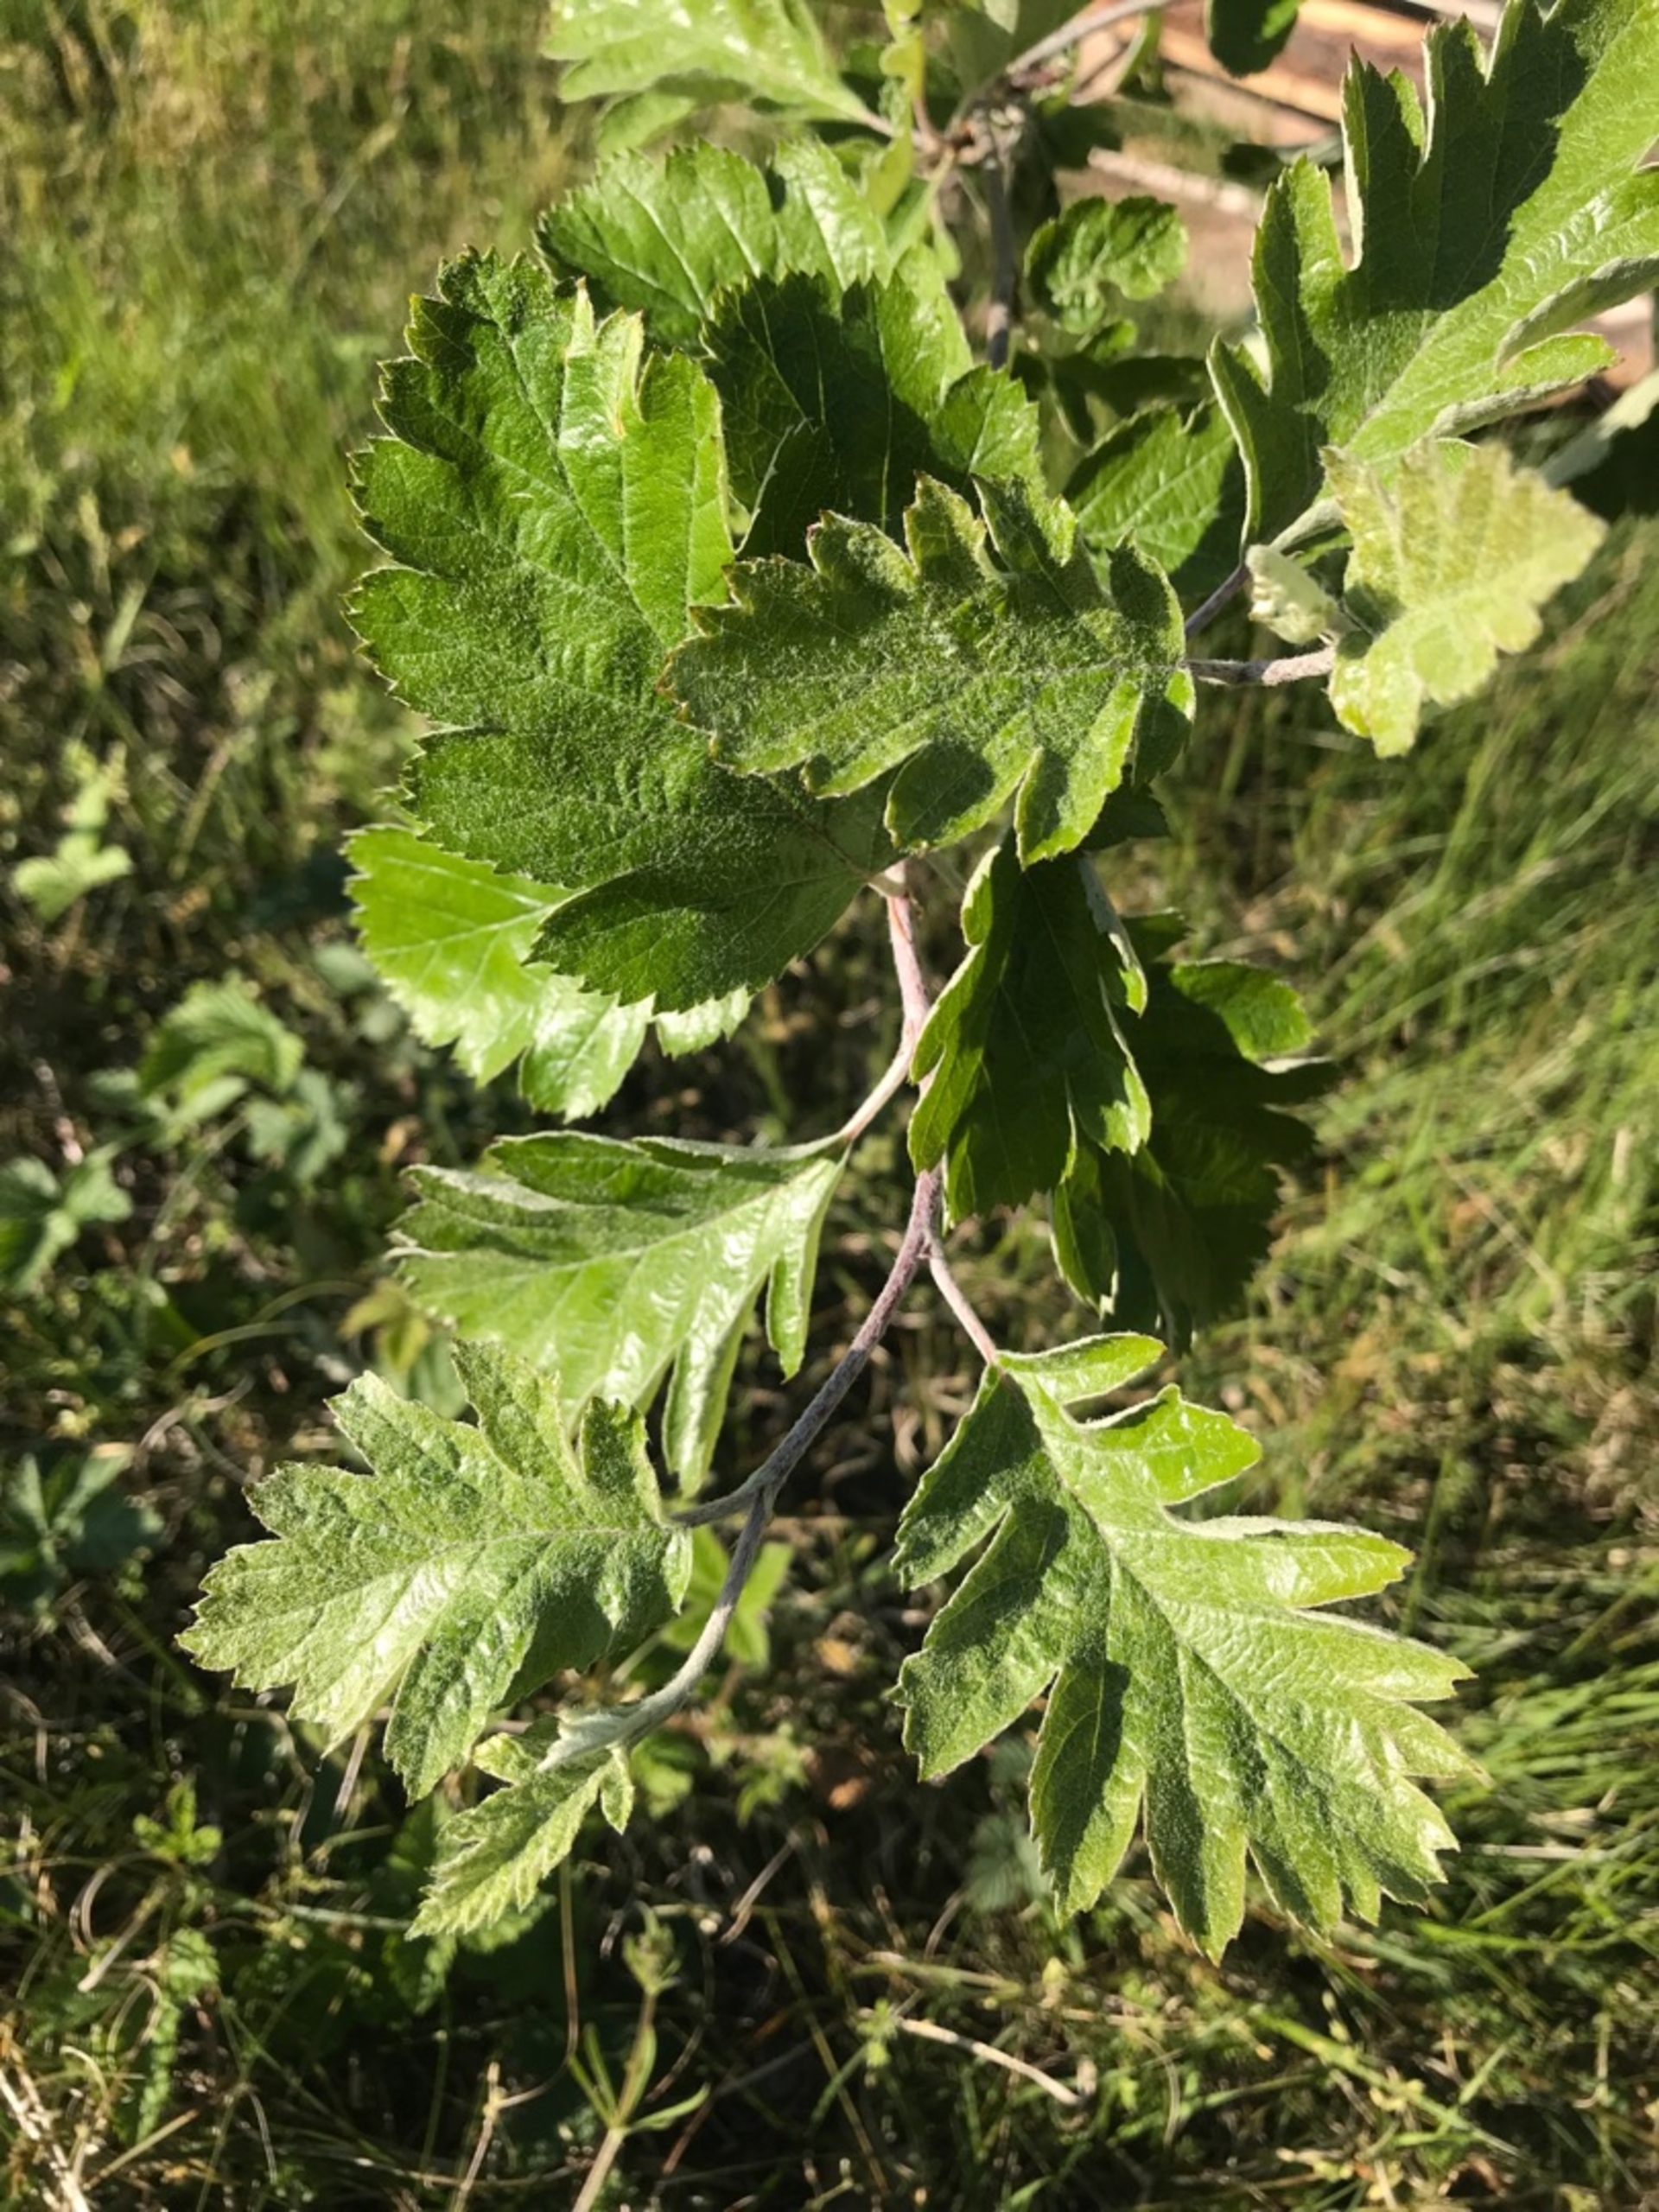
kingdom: Plantae
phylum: Tracheophyta
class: Magnoliopsida
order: Rosales
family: Rosaceae
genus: Scandosorbus
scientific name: Scandosorbus intermedia
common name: Selje-røn
